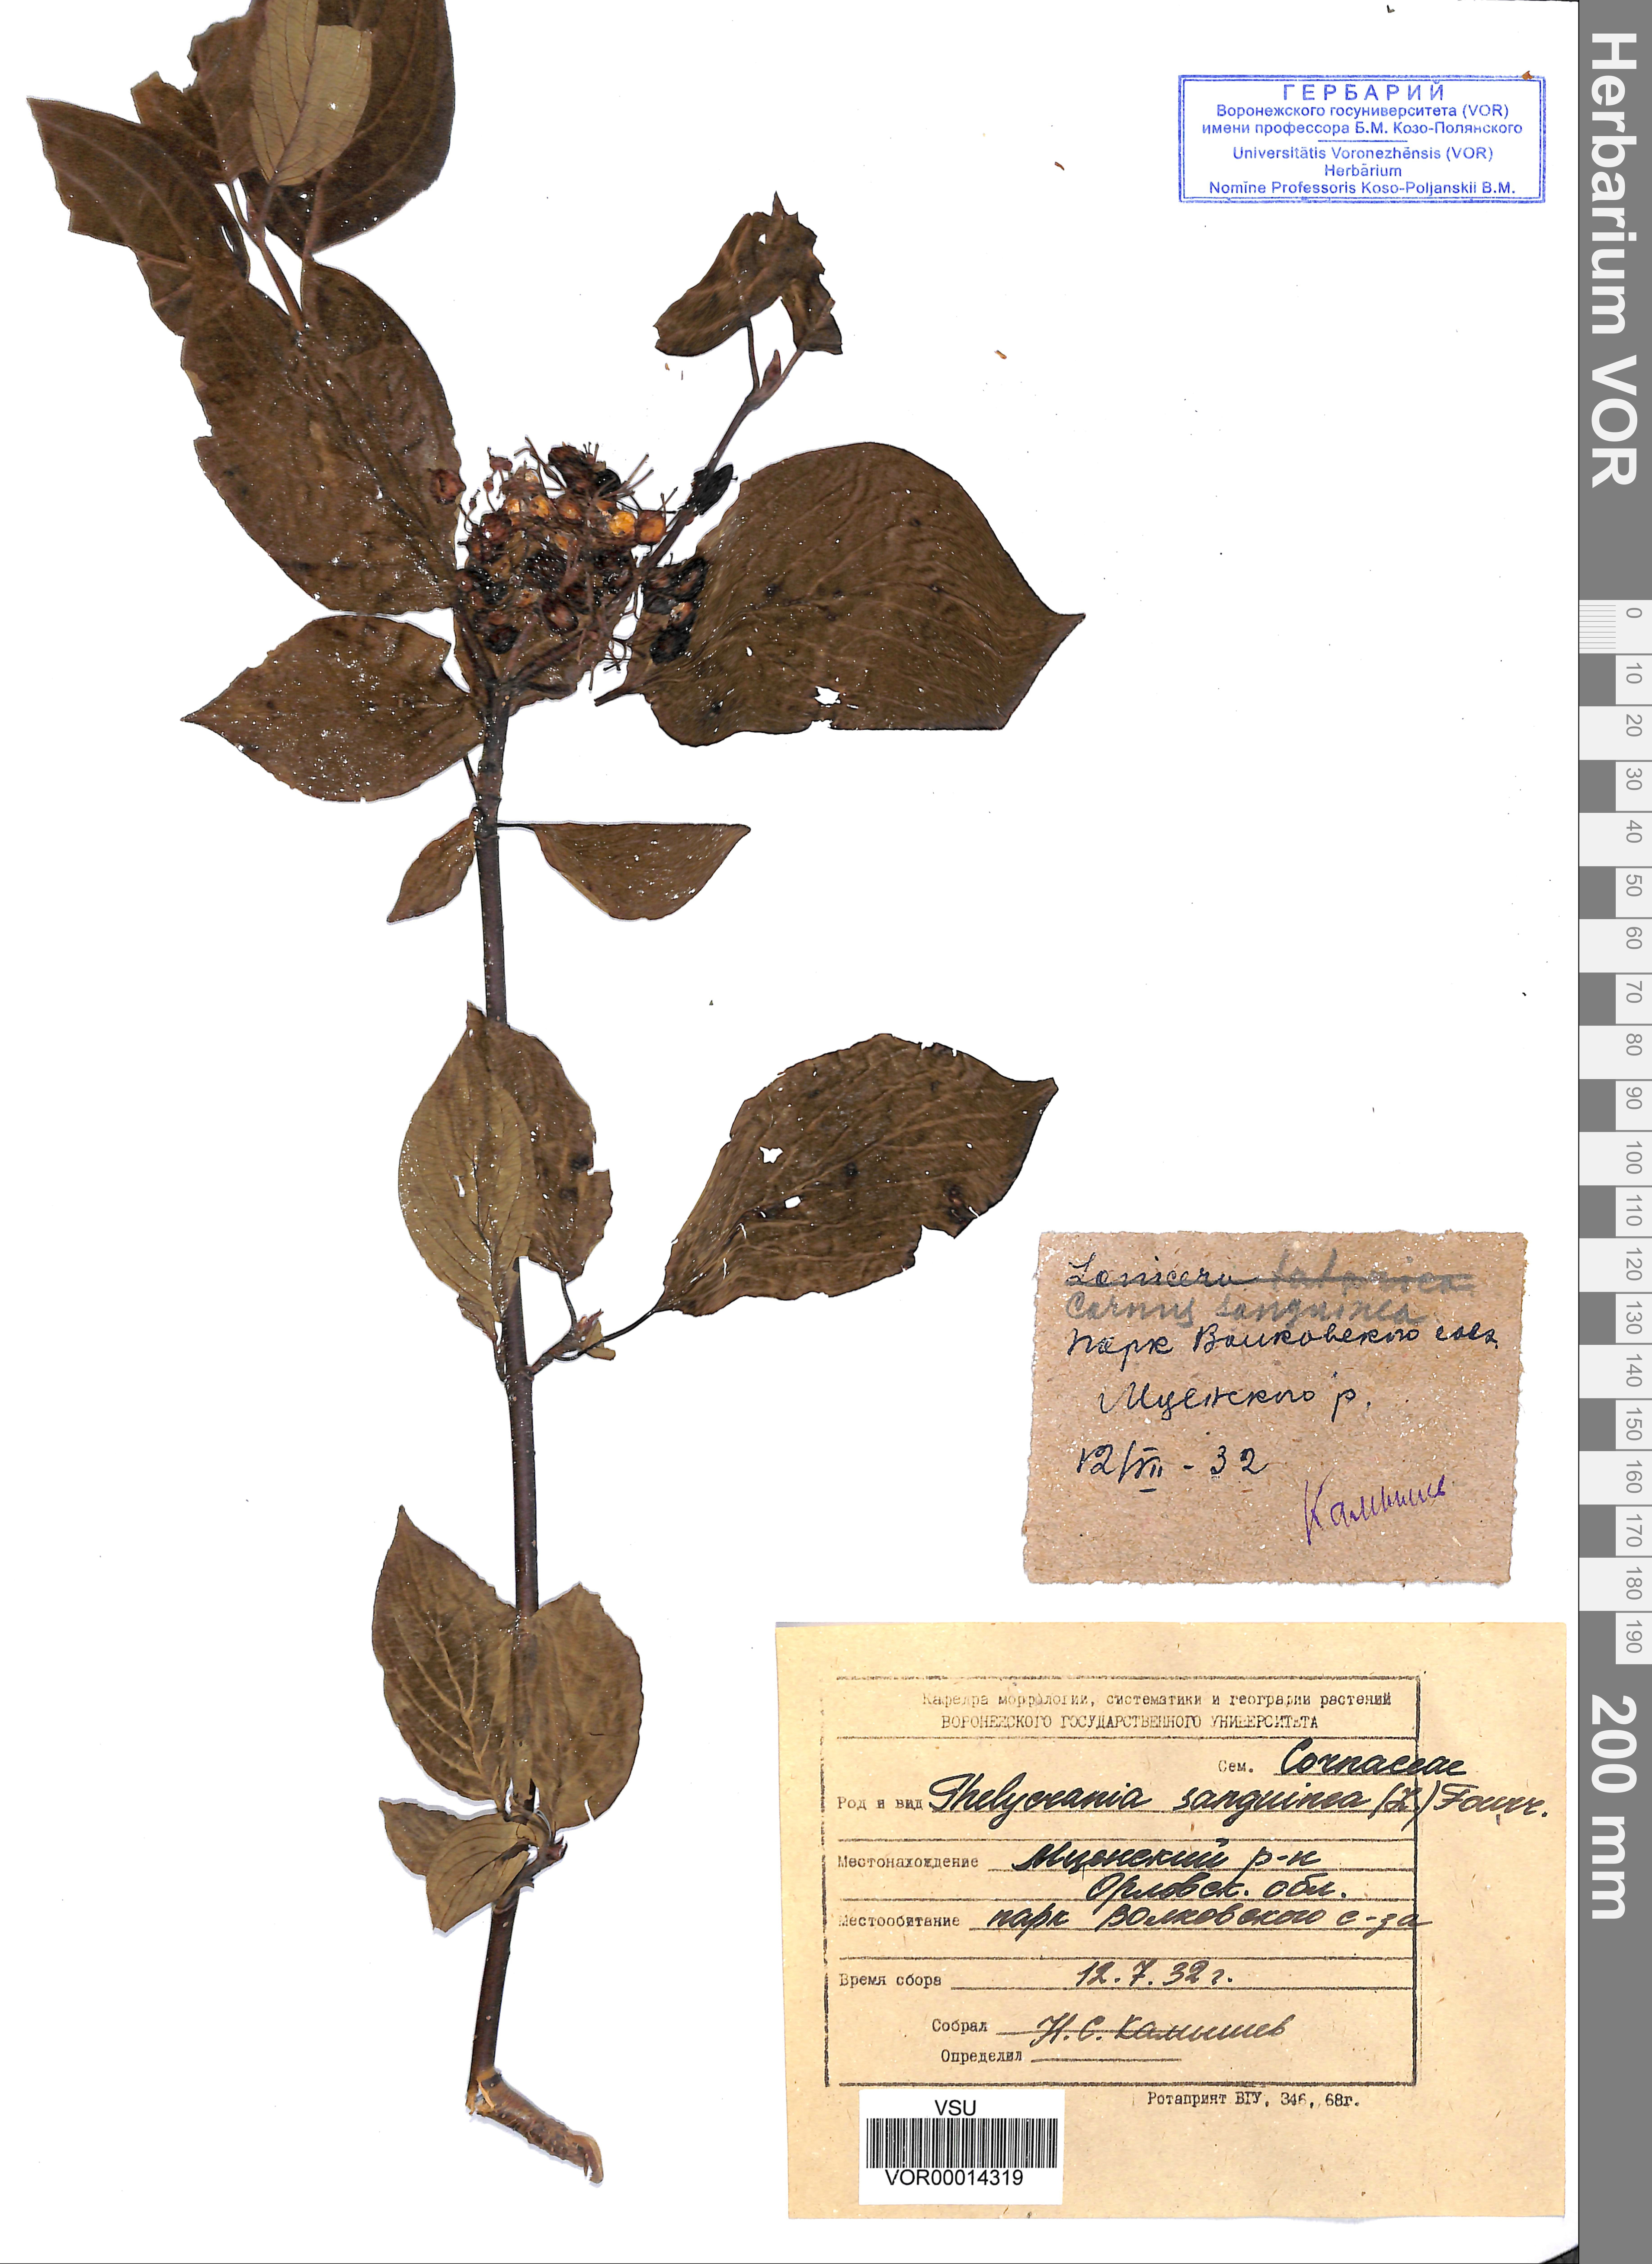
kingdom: Plantae
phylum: Tracheophyta
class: Magnoliopsida
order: Cornales
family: Cornaceae
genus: Cornus
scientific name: Cornus sanguinea
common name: Dogwood
